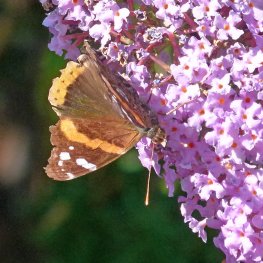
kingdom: Animalia
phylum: Arthropoda
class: Insecta
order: Lepidoptera
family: Nymphalidae
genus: Vanessa
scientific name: Vanessa atalanta
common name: Red Admiral
